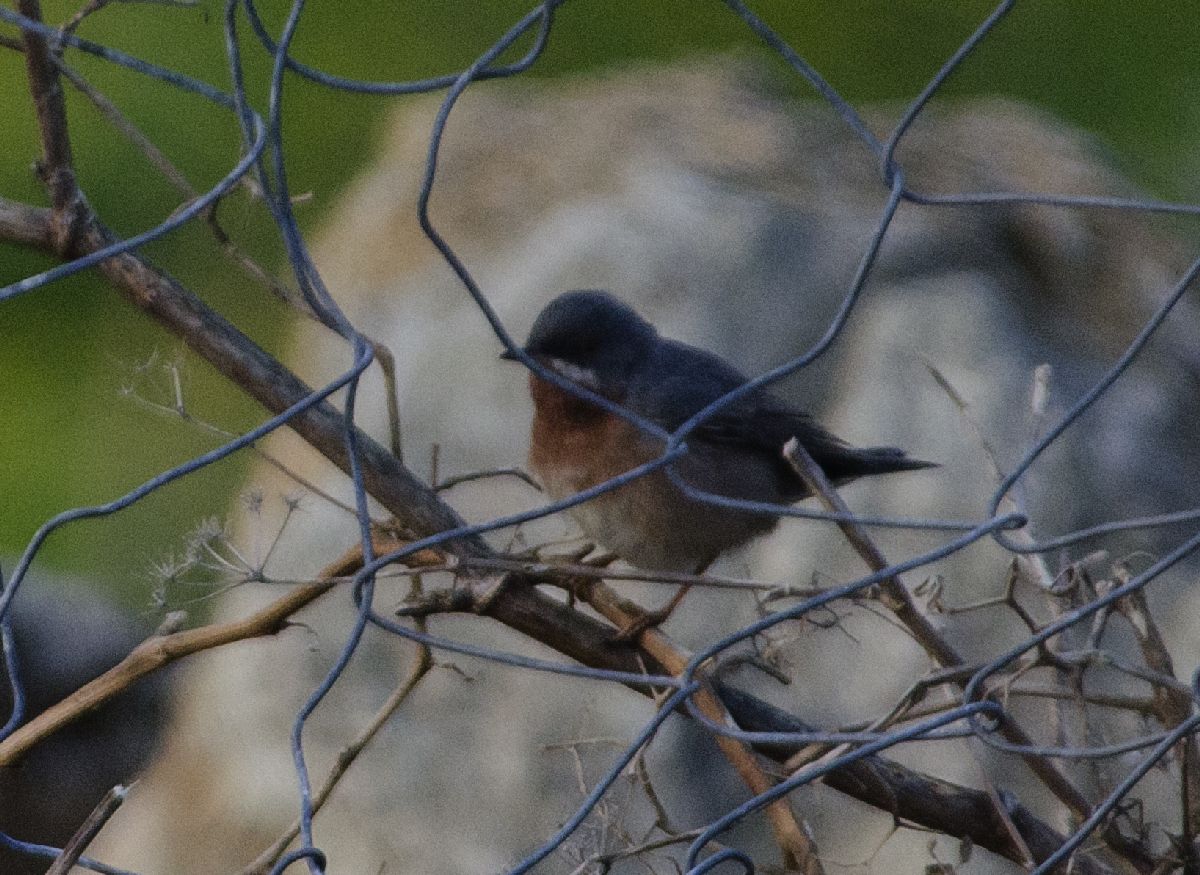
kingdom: Animalia
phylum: Chordata
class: Aves
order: Passeriformes
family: Sylviidae
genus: Sylvia
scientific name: Sylvia cantillans
